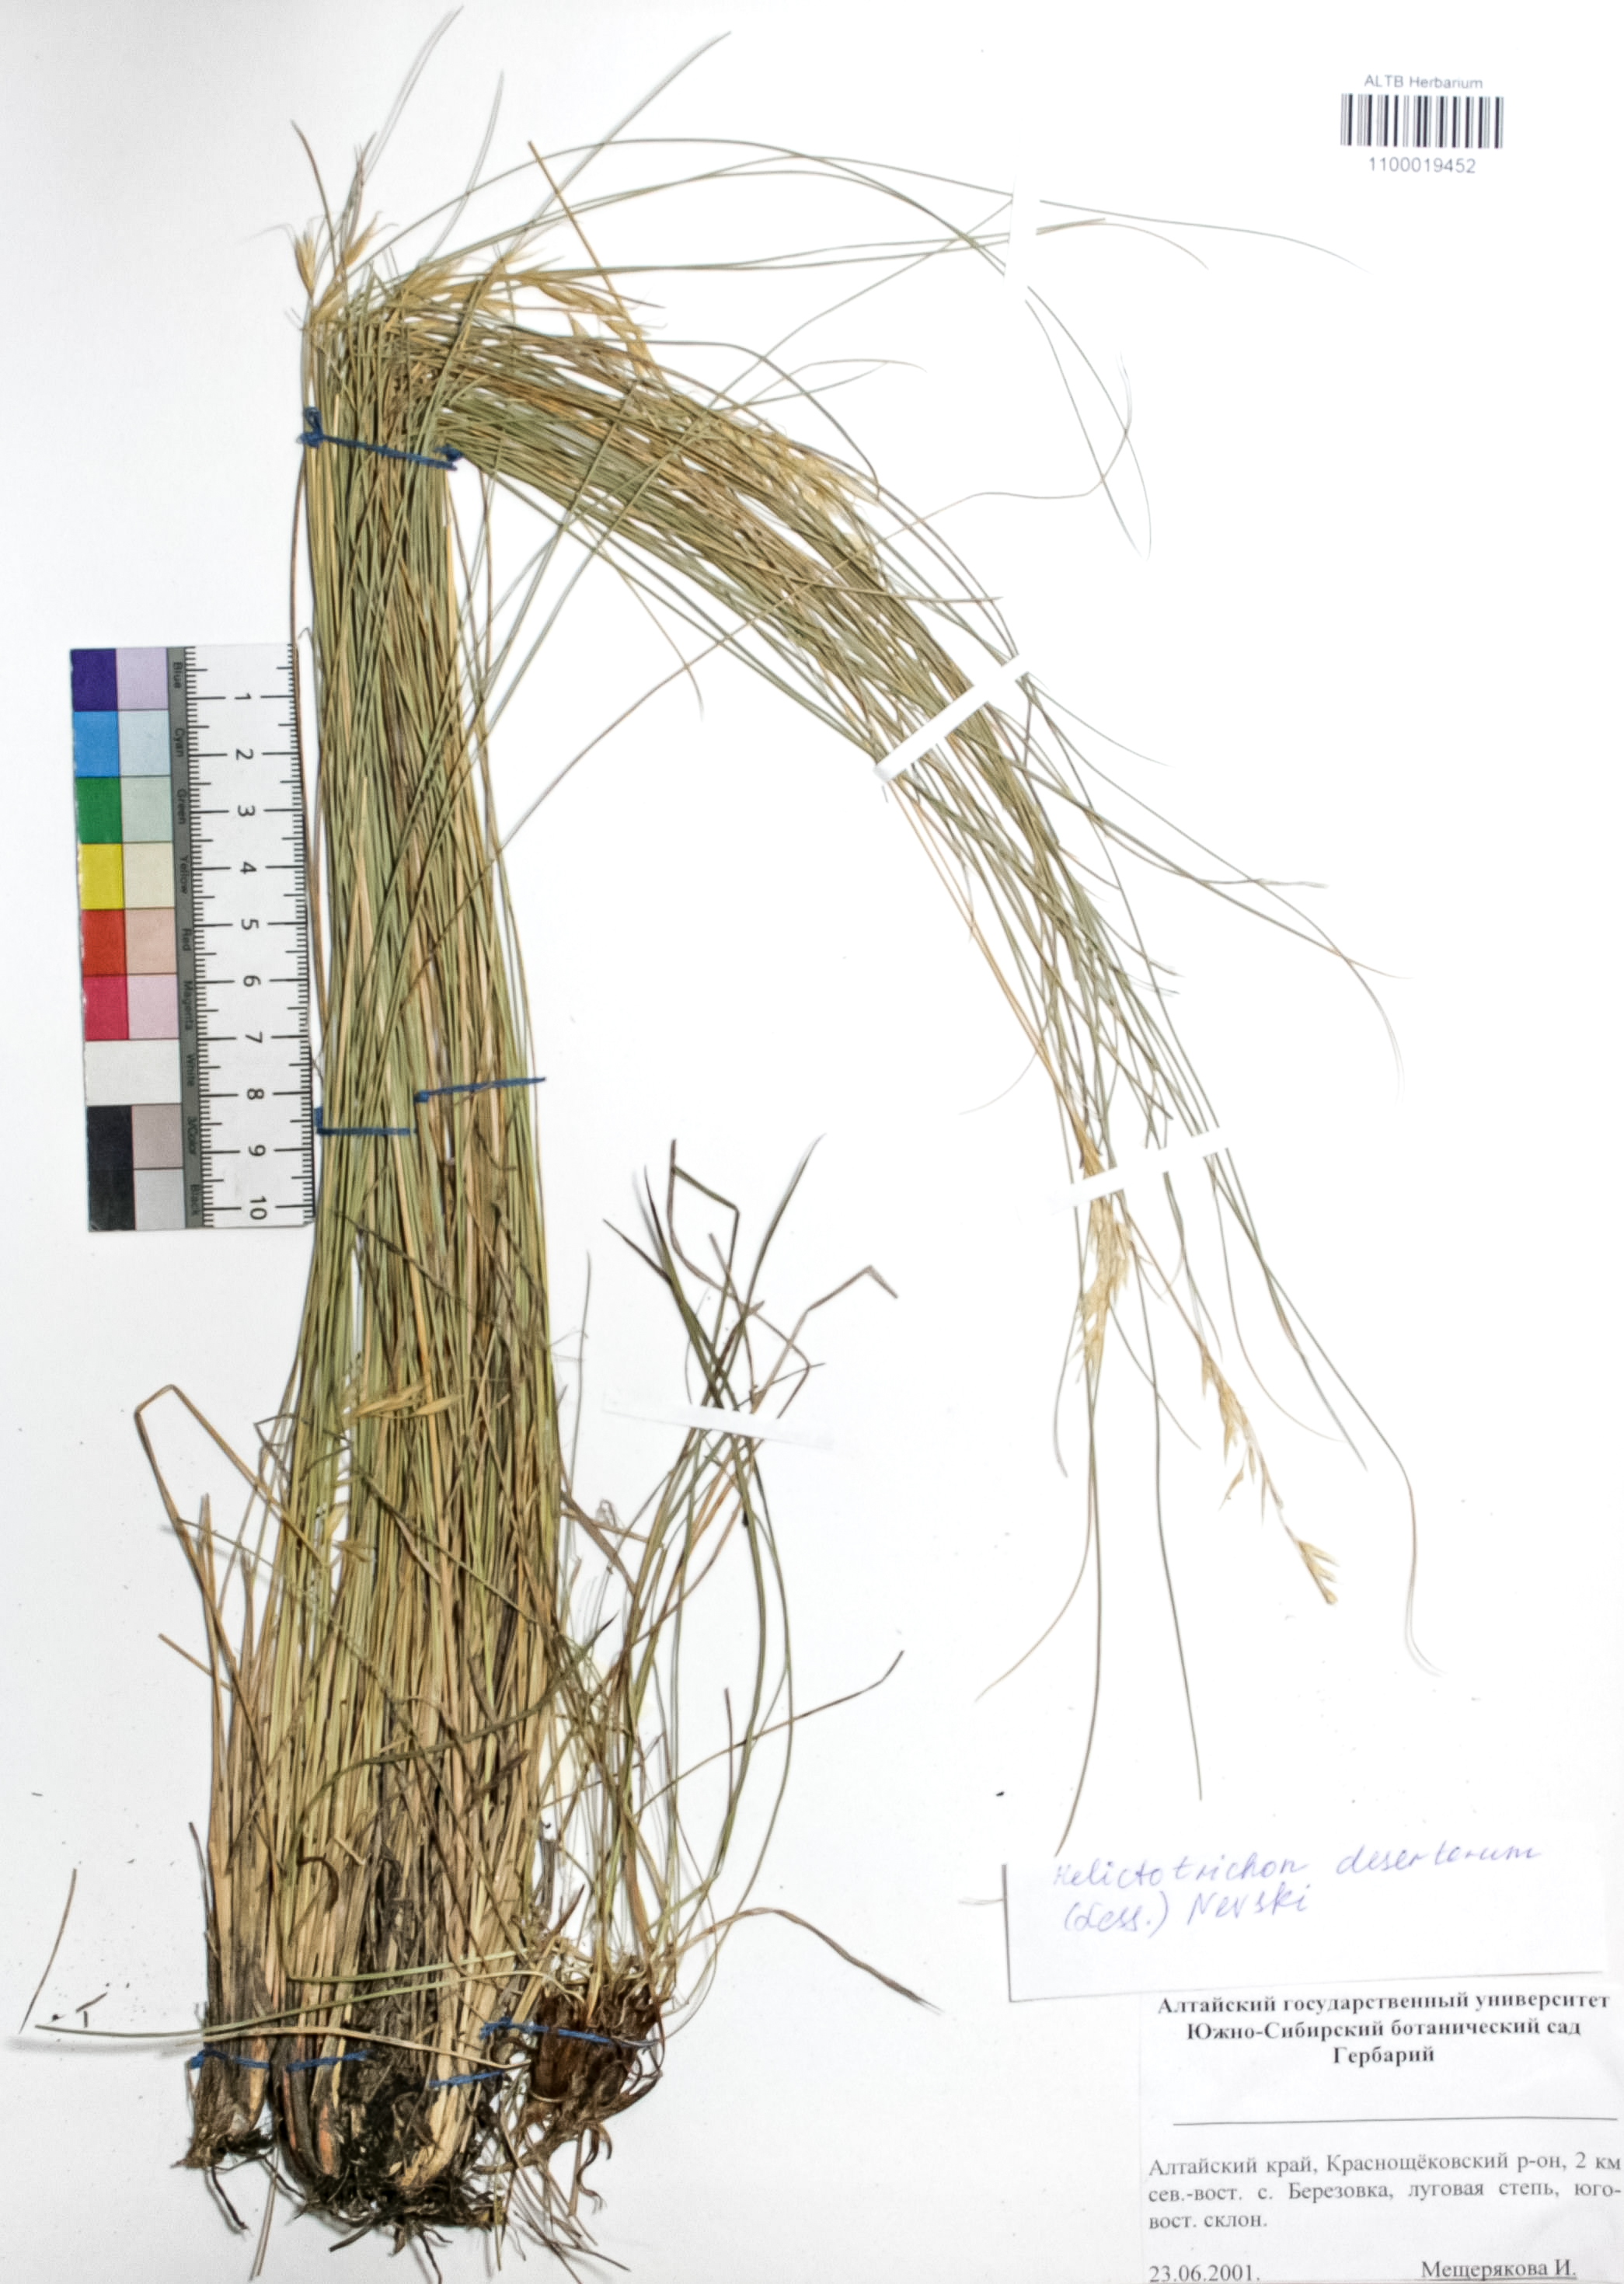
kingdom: Plantae
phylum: Tracheophyta
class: Liliopsida
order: Poales
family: Poaceae
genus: Helictotrichon
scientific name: Helictotrichon desertorum
